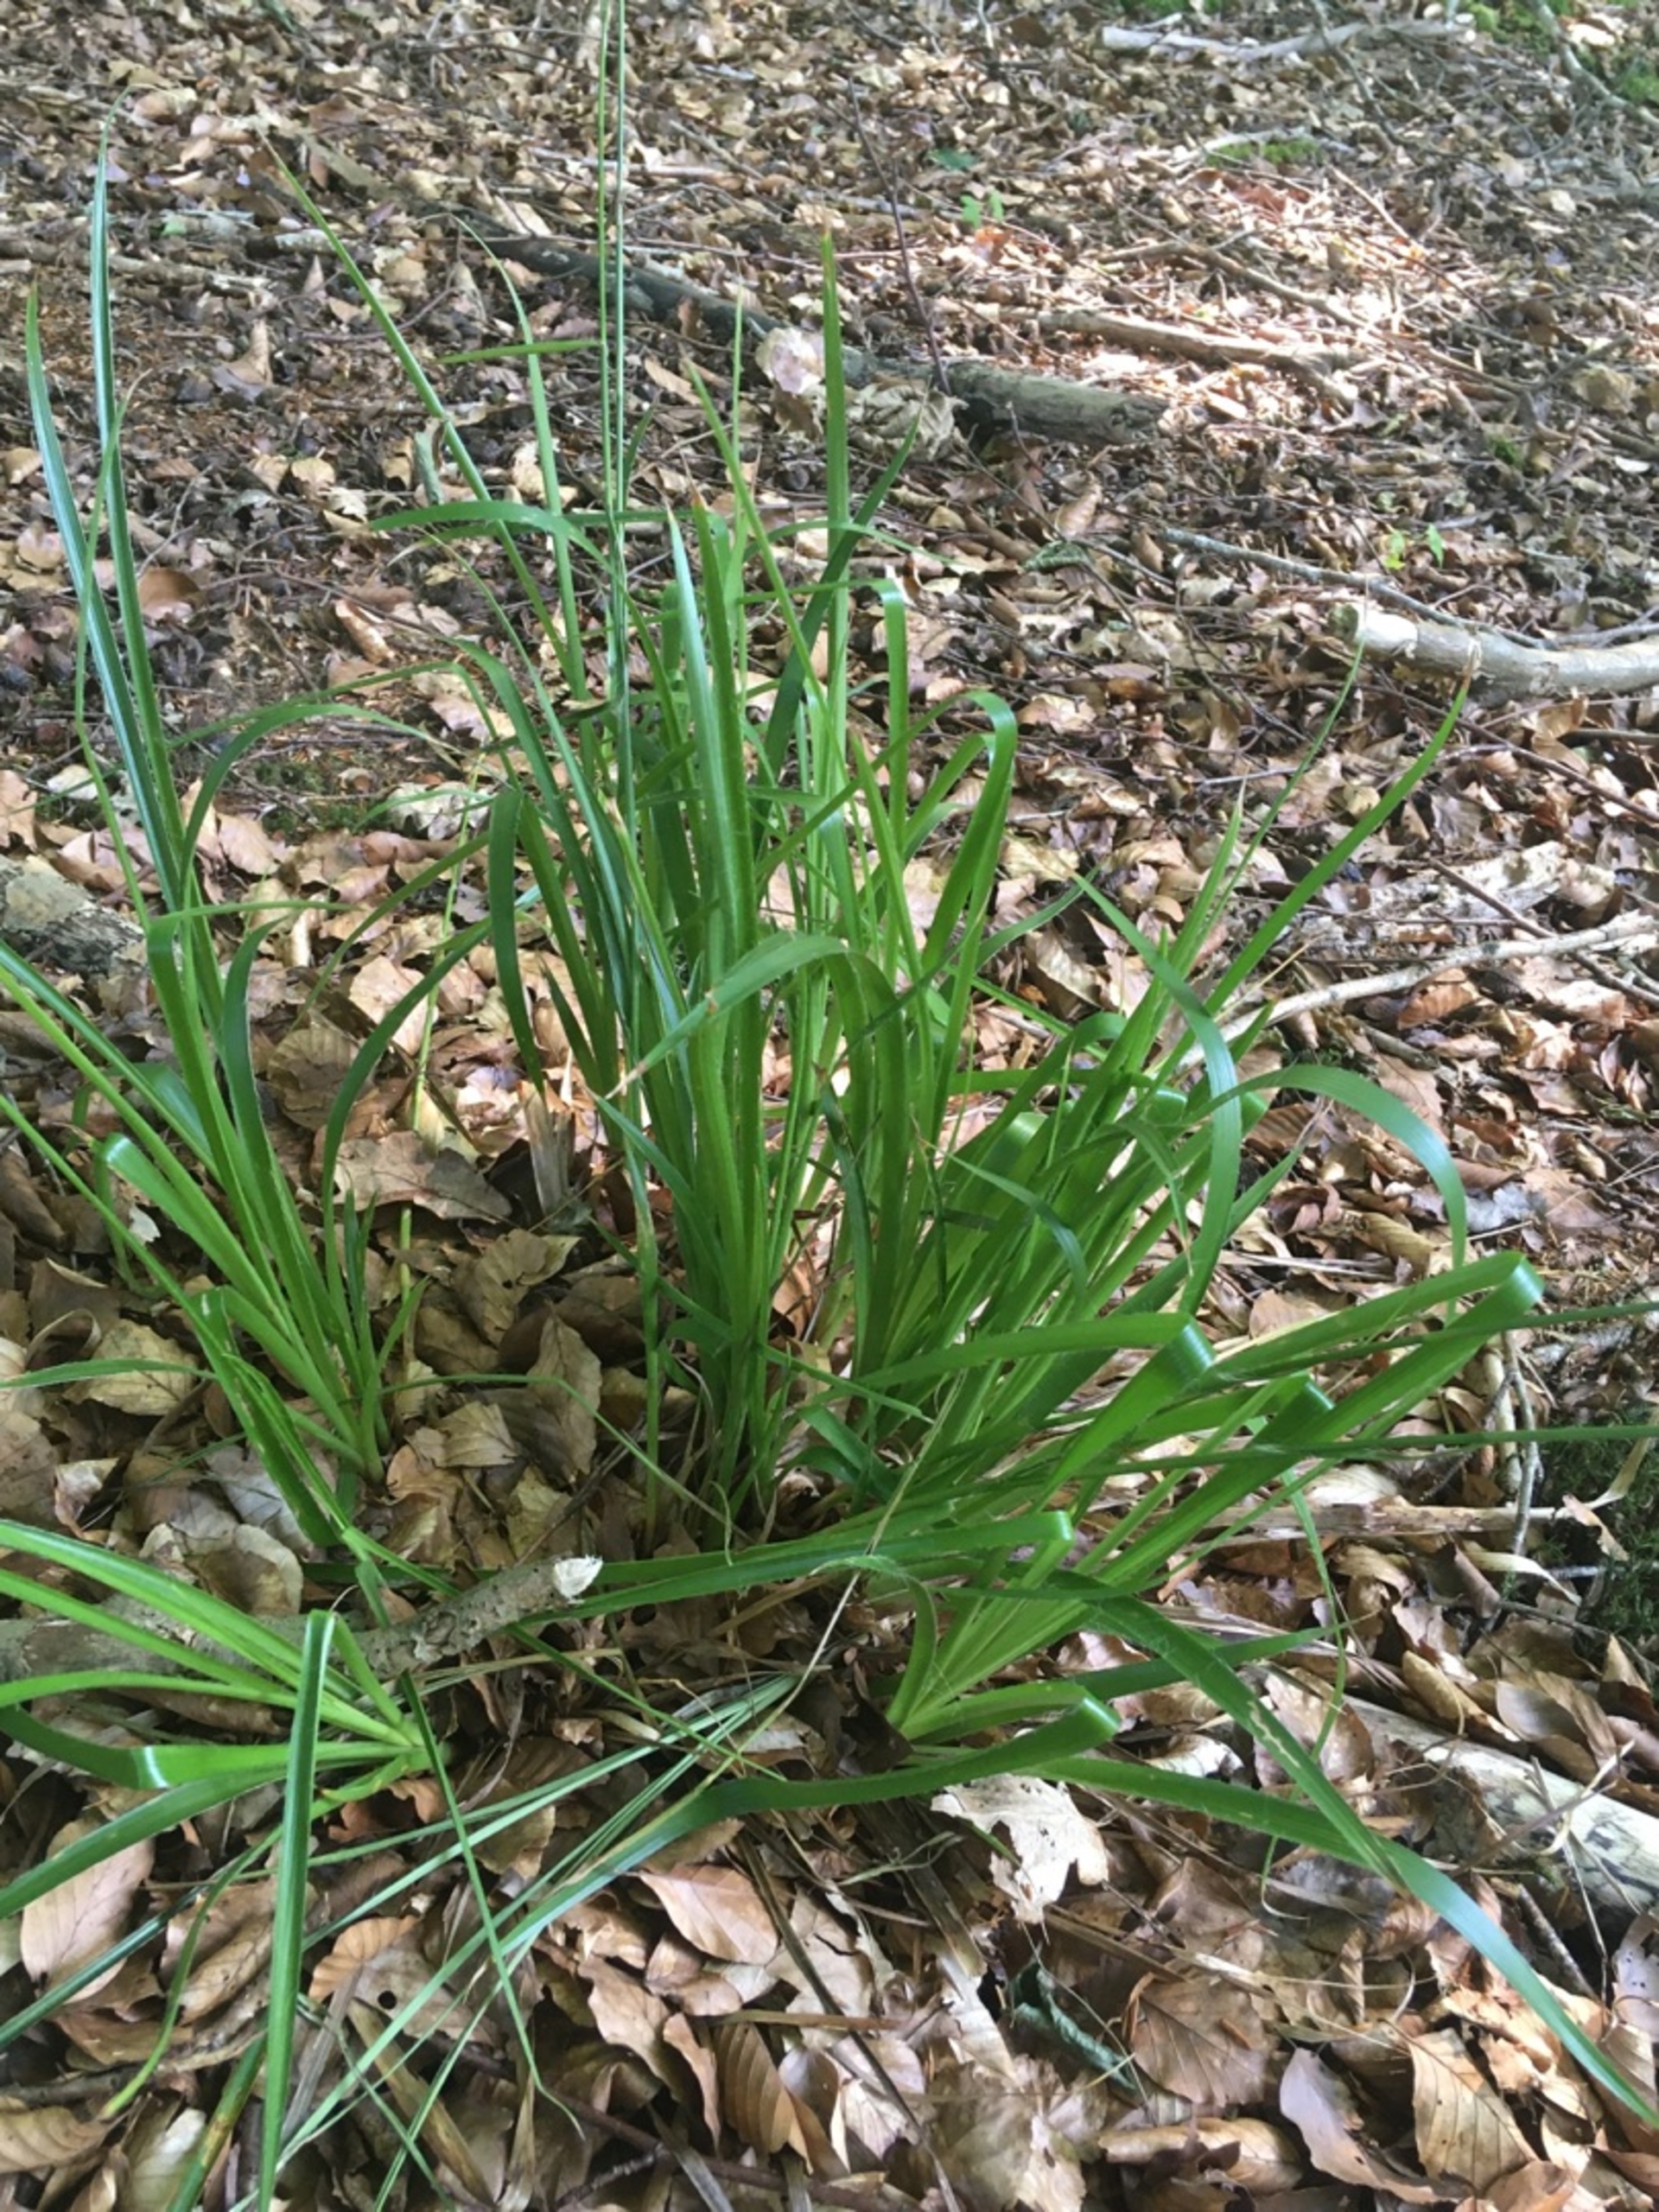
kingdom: Plantae
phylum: Tracheophyta
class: Liliopsida
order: Poales
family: Juncaceae
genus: Luzula
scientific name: Luzula sylvatica
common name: Stor frytle
